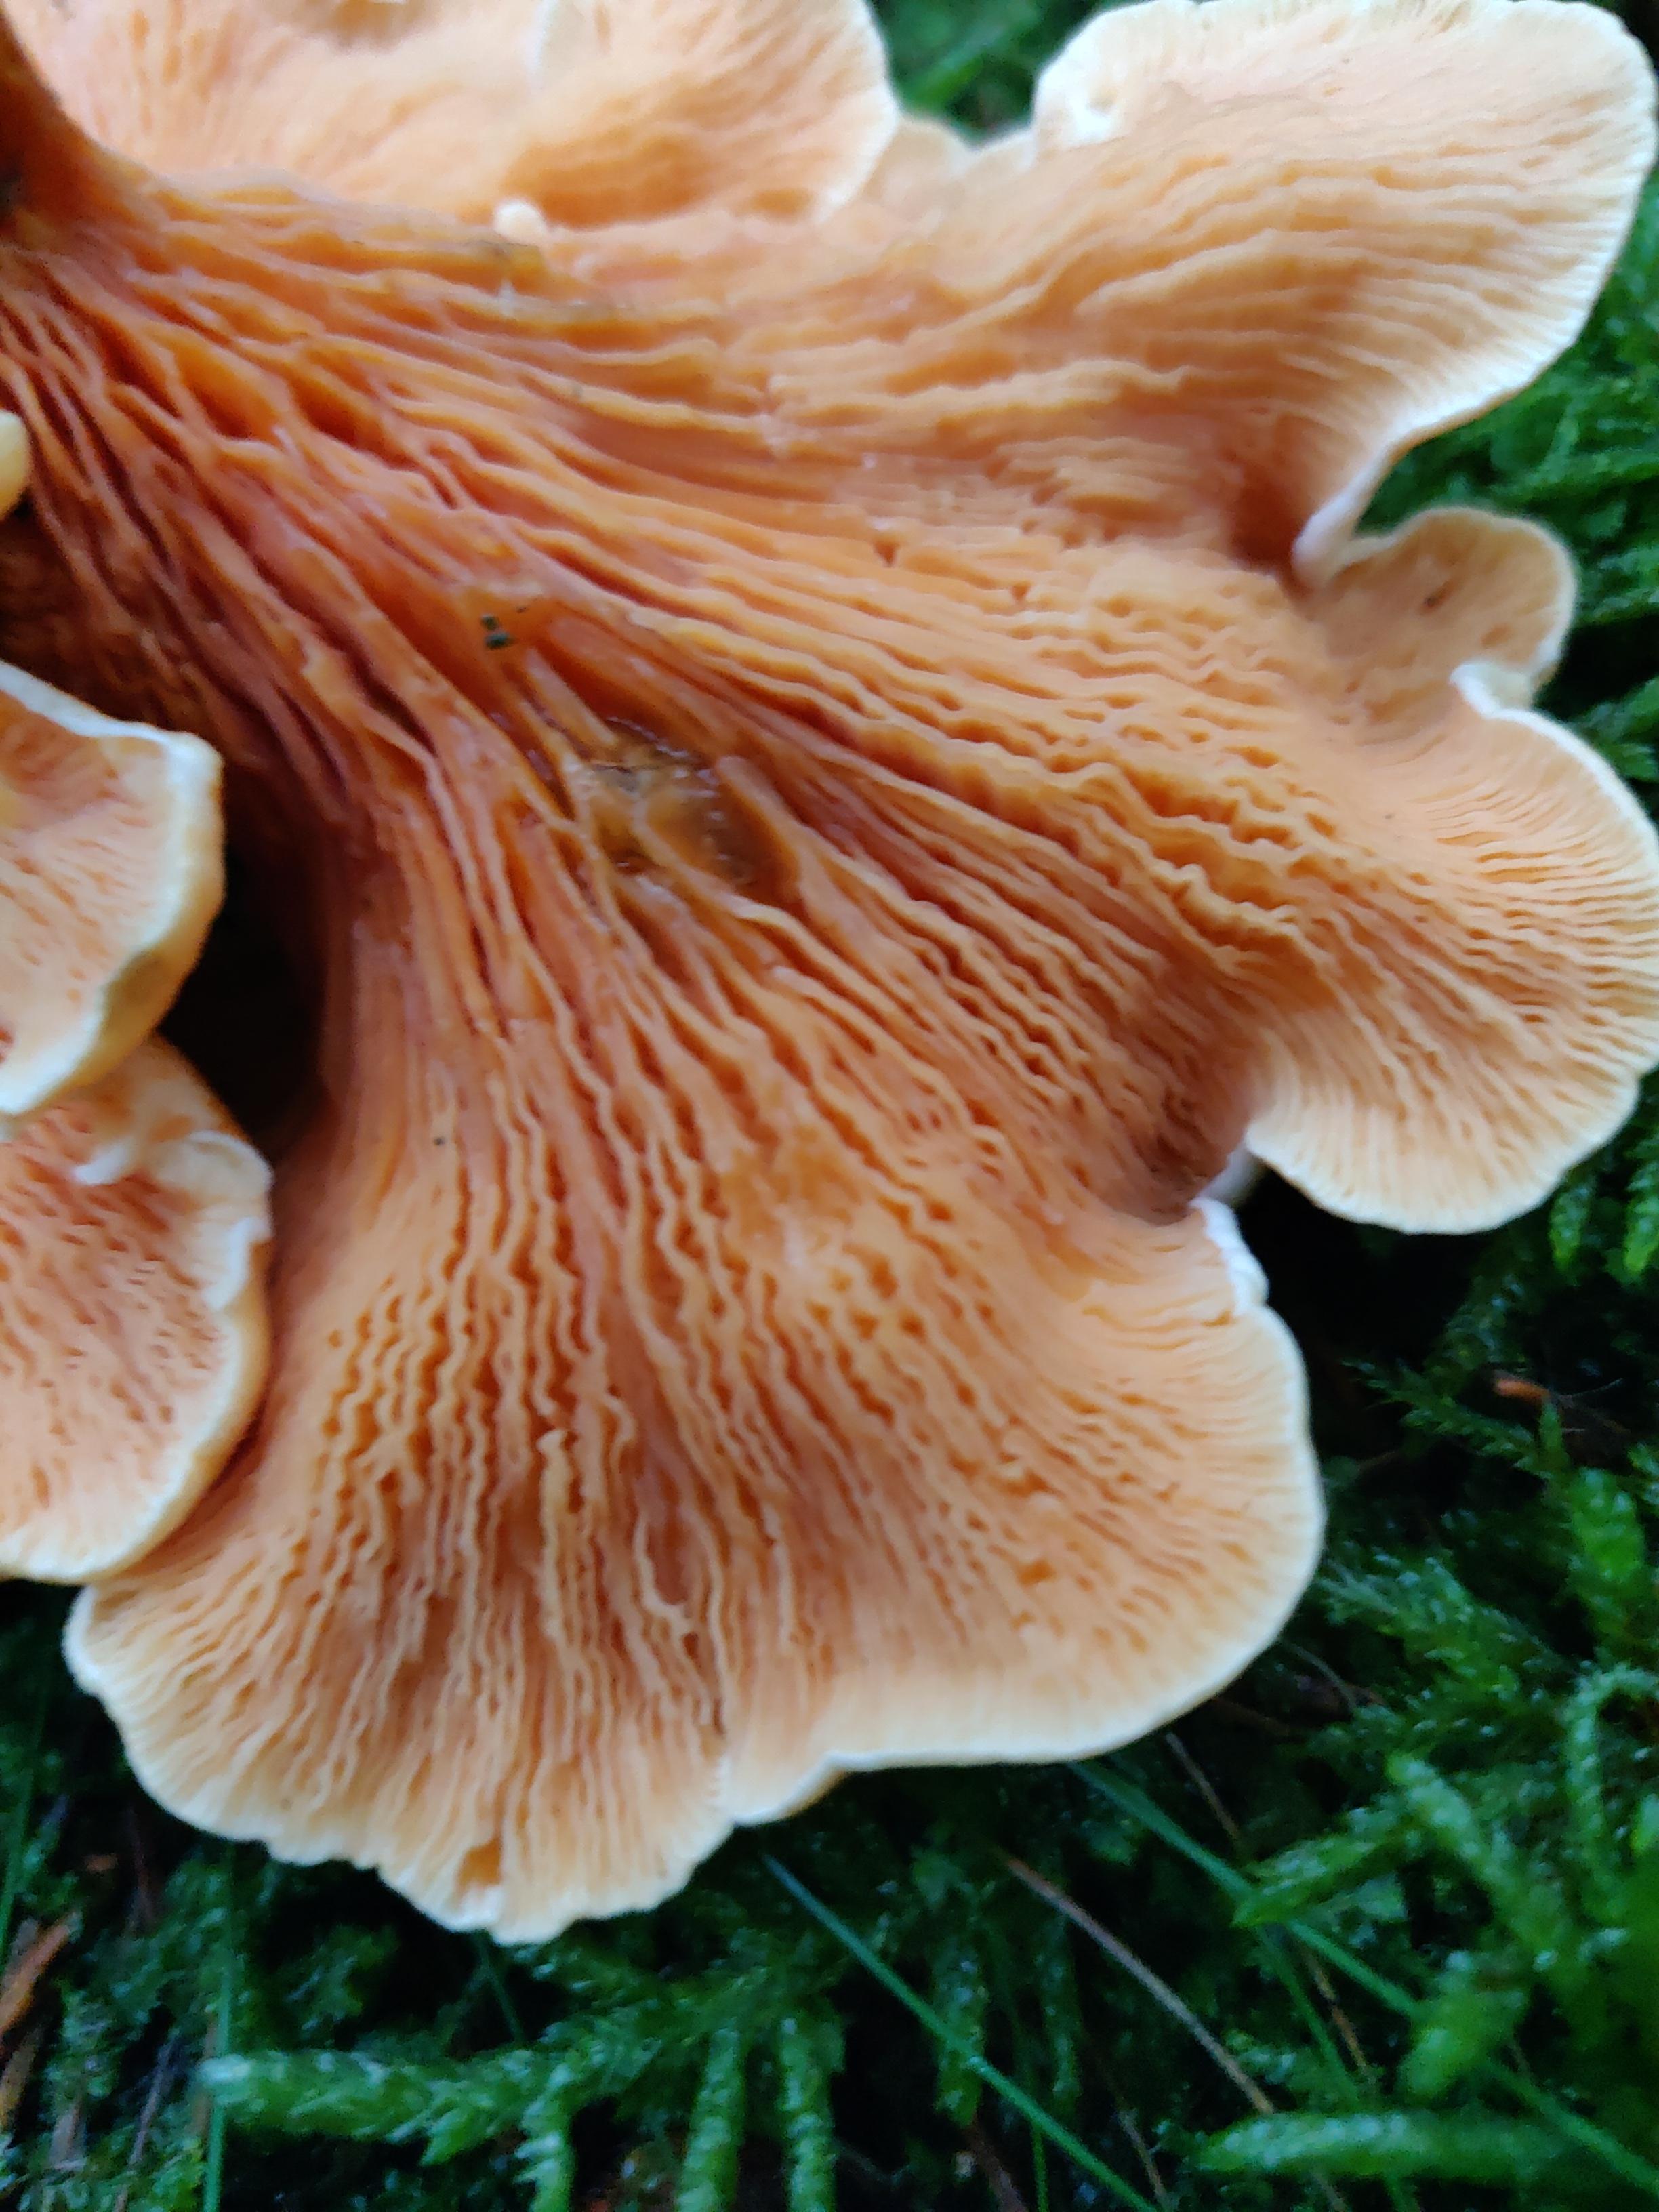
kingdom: Fungi
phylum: Basidiomycota
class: Agaricomycetes
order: Boletales
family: Hygrophoropsidaceae
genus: Hygrophoropsis
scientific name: Hygrophoropsis aurantiaca
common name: almindelig orangekantarel
